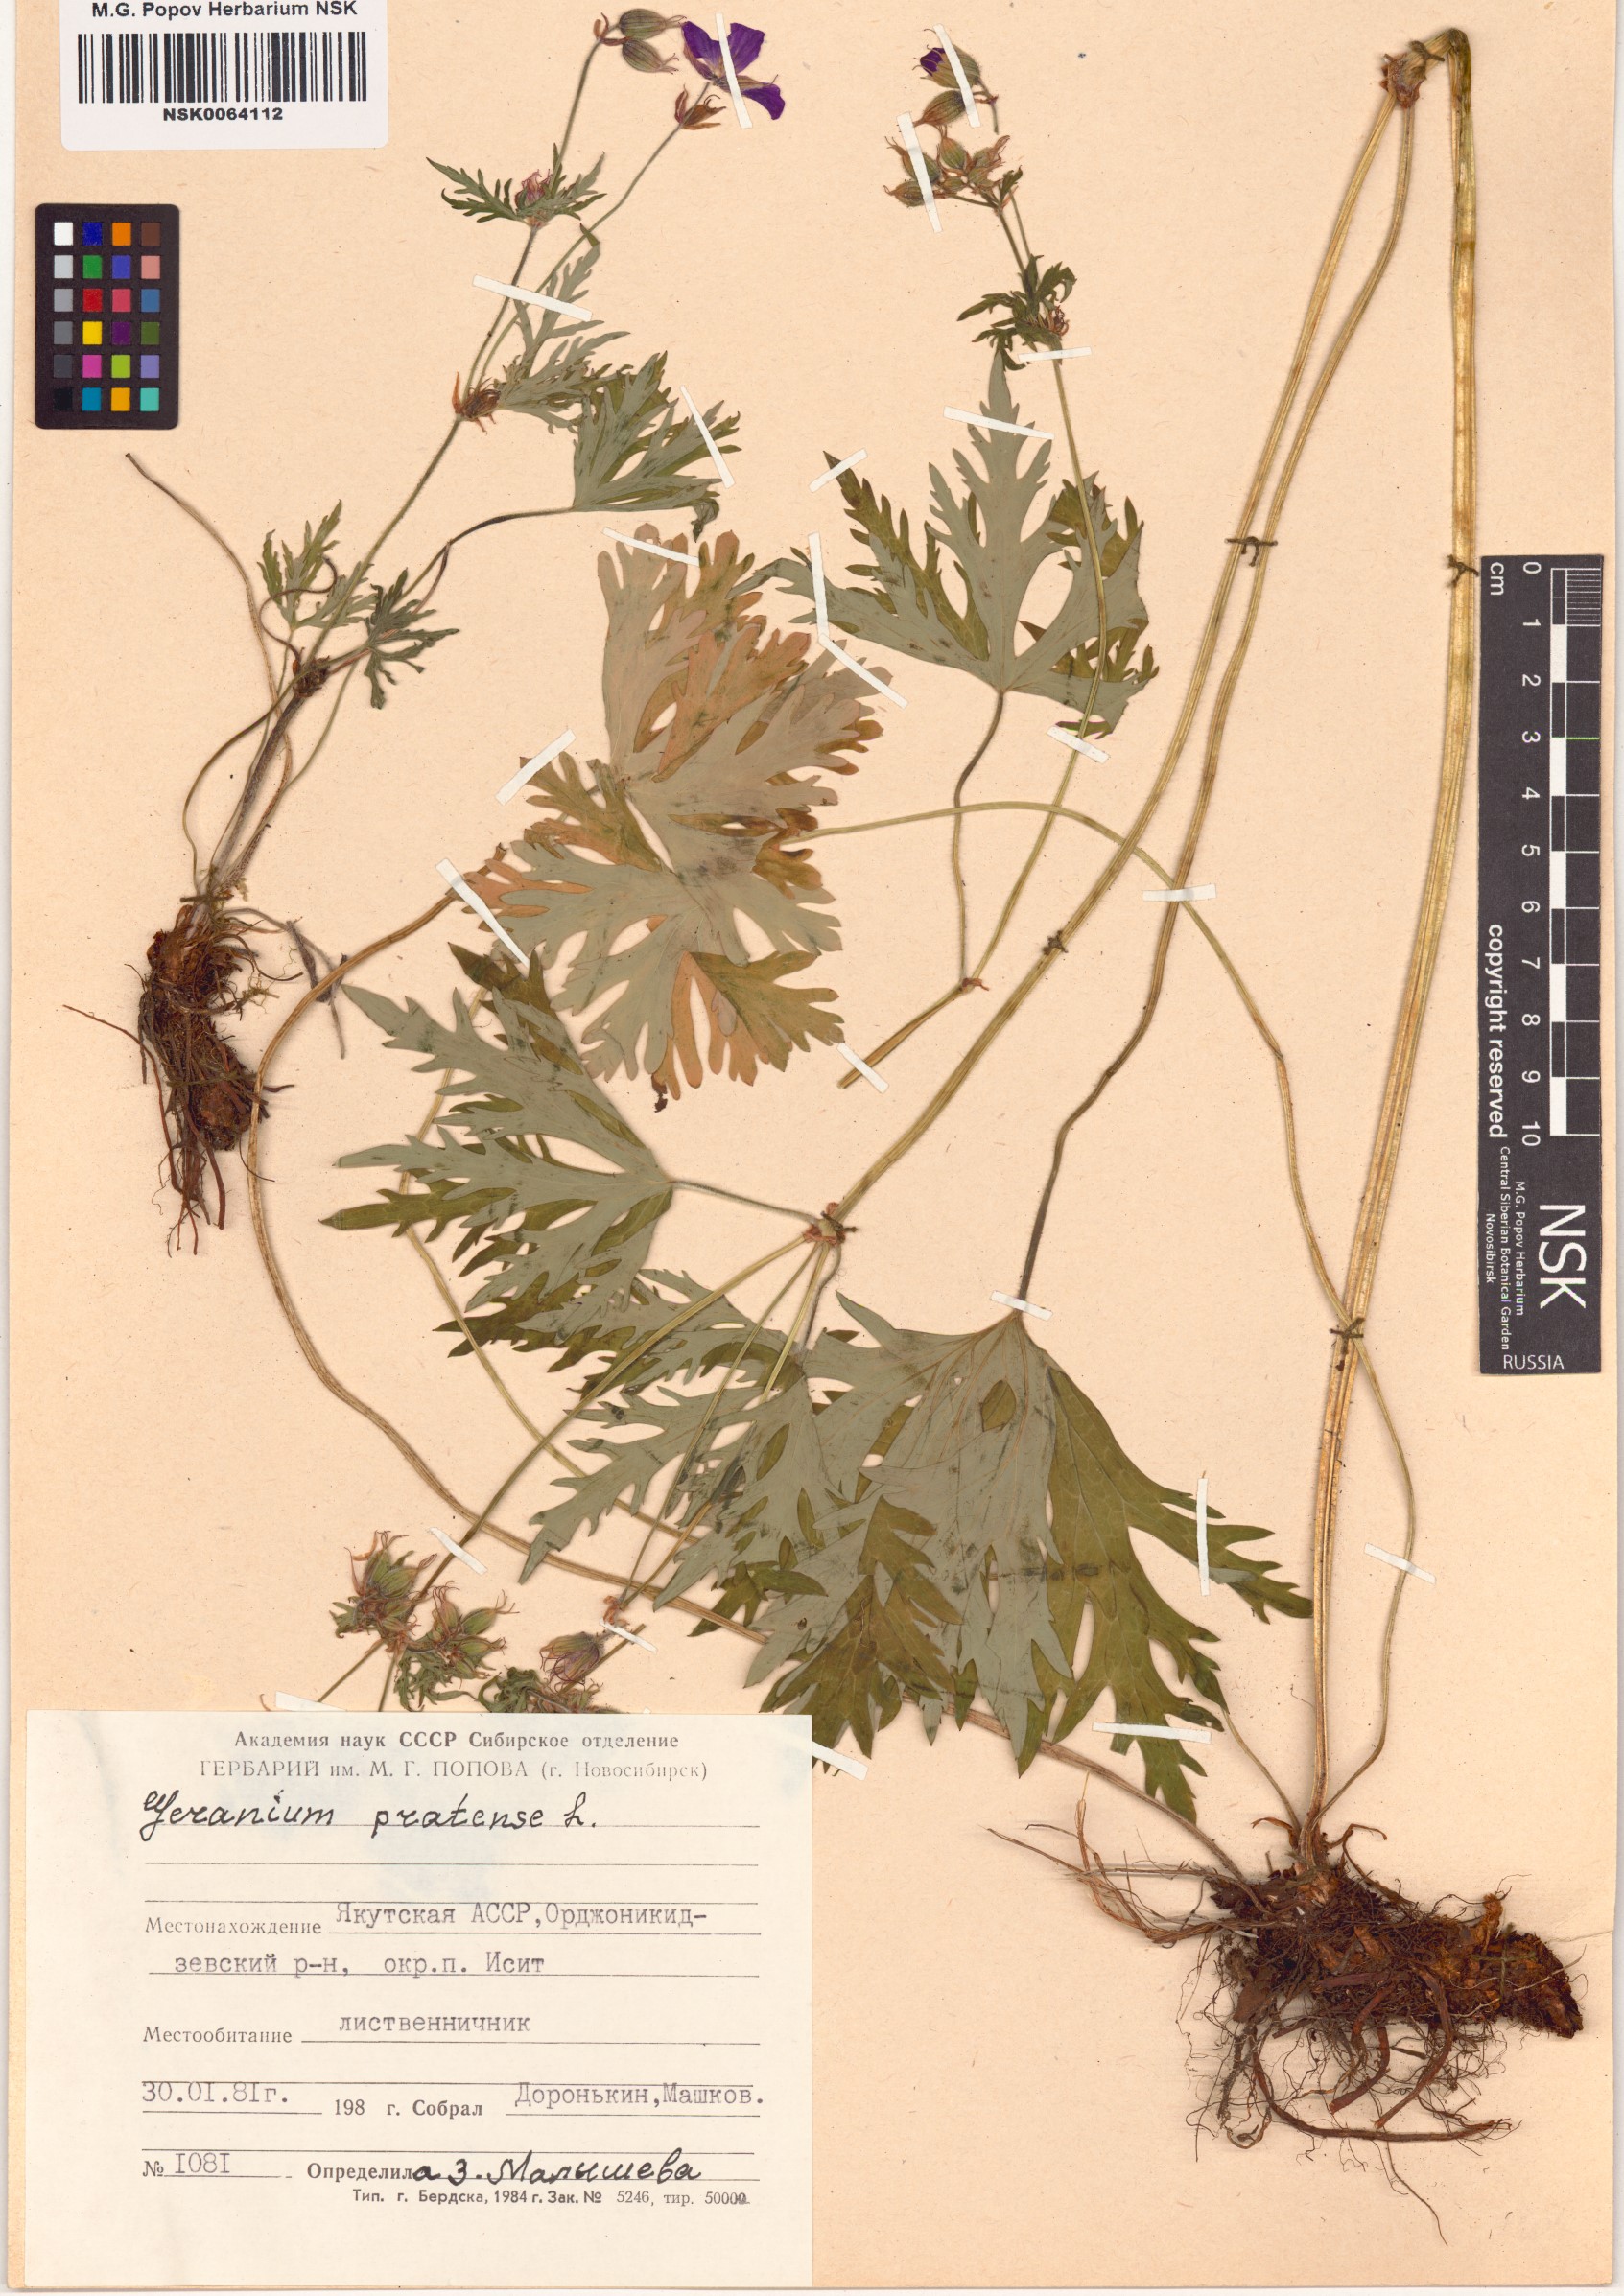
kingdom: Plantae
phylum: Tracheophyta
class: Magnoliopsida
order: Geraniales
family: Geraniaceae
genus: Geranium
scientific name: Geranium pratense
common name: Meadow crane's-bill
